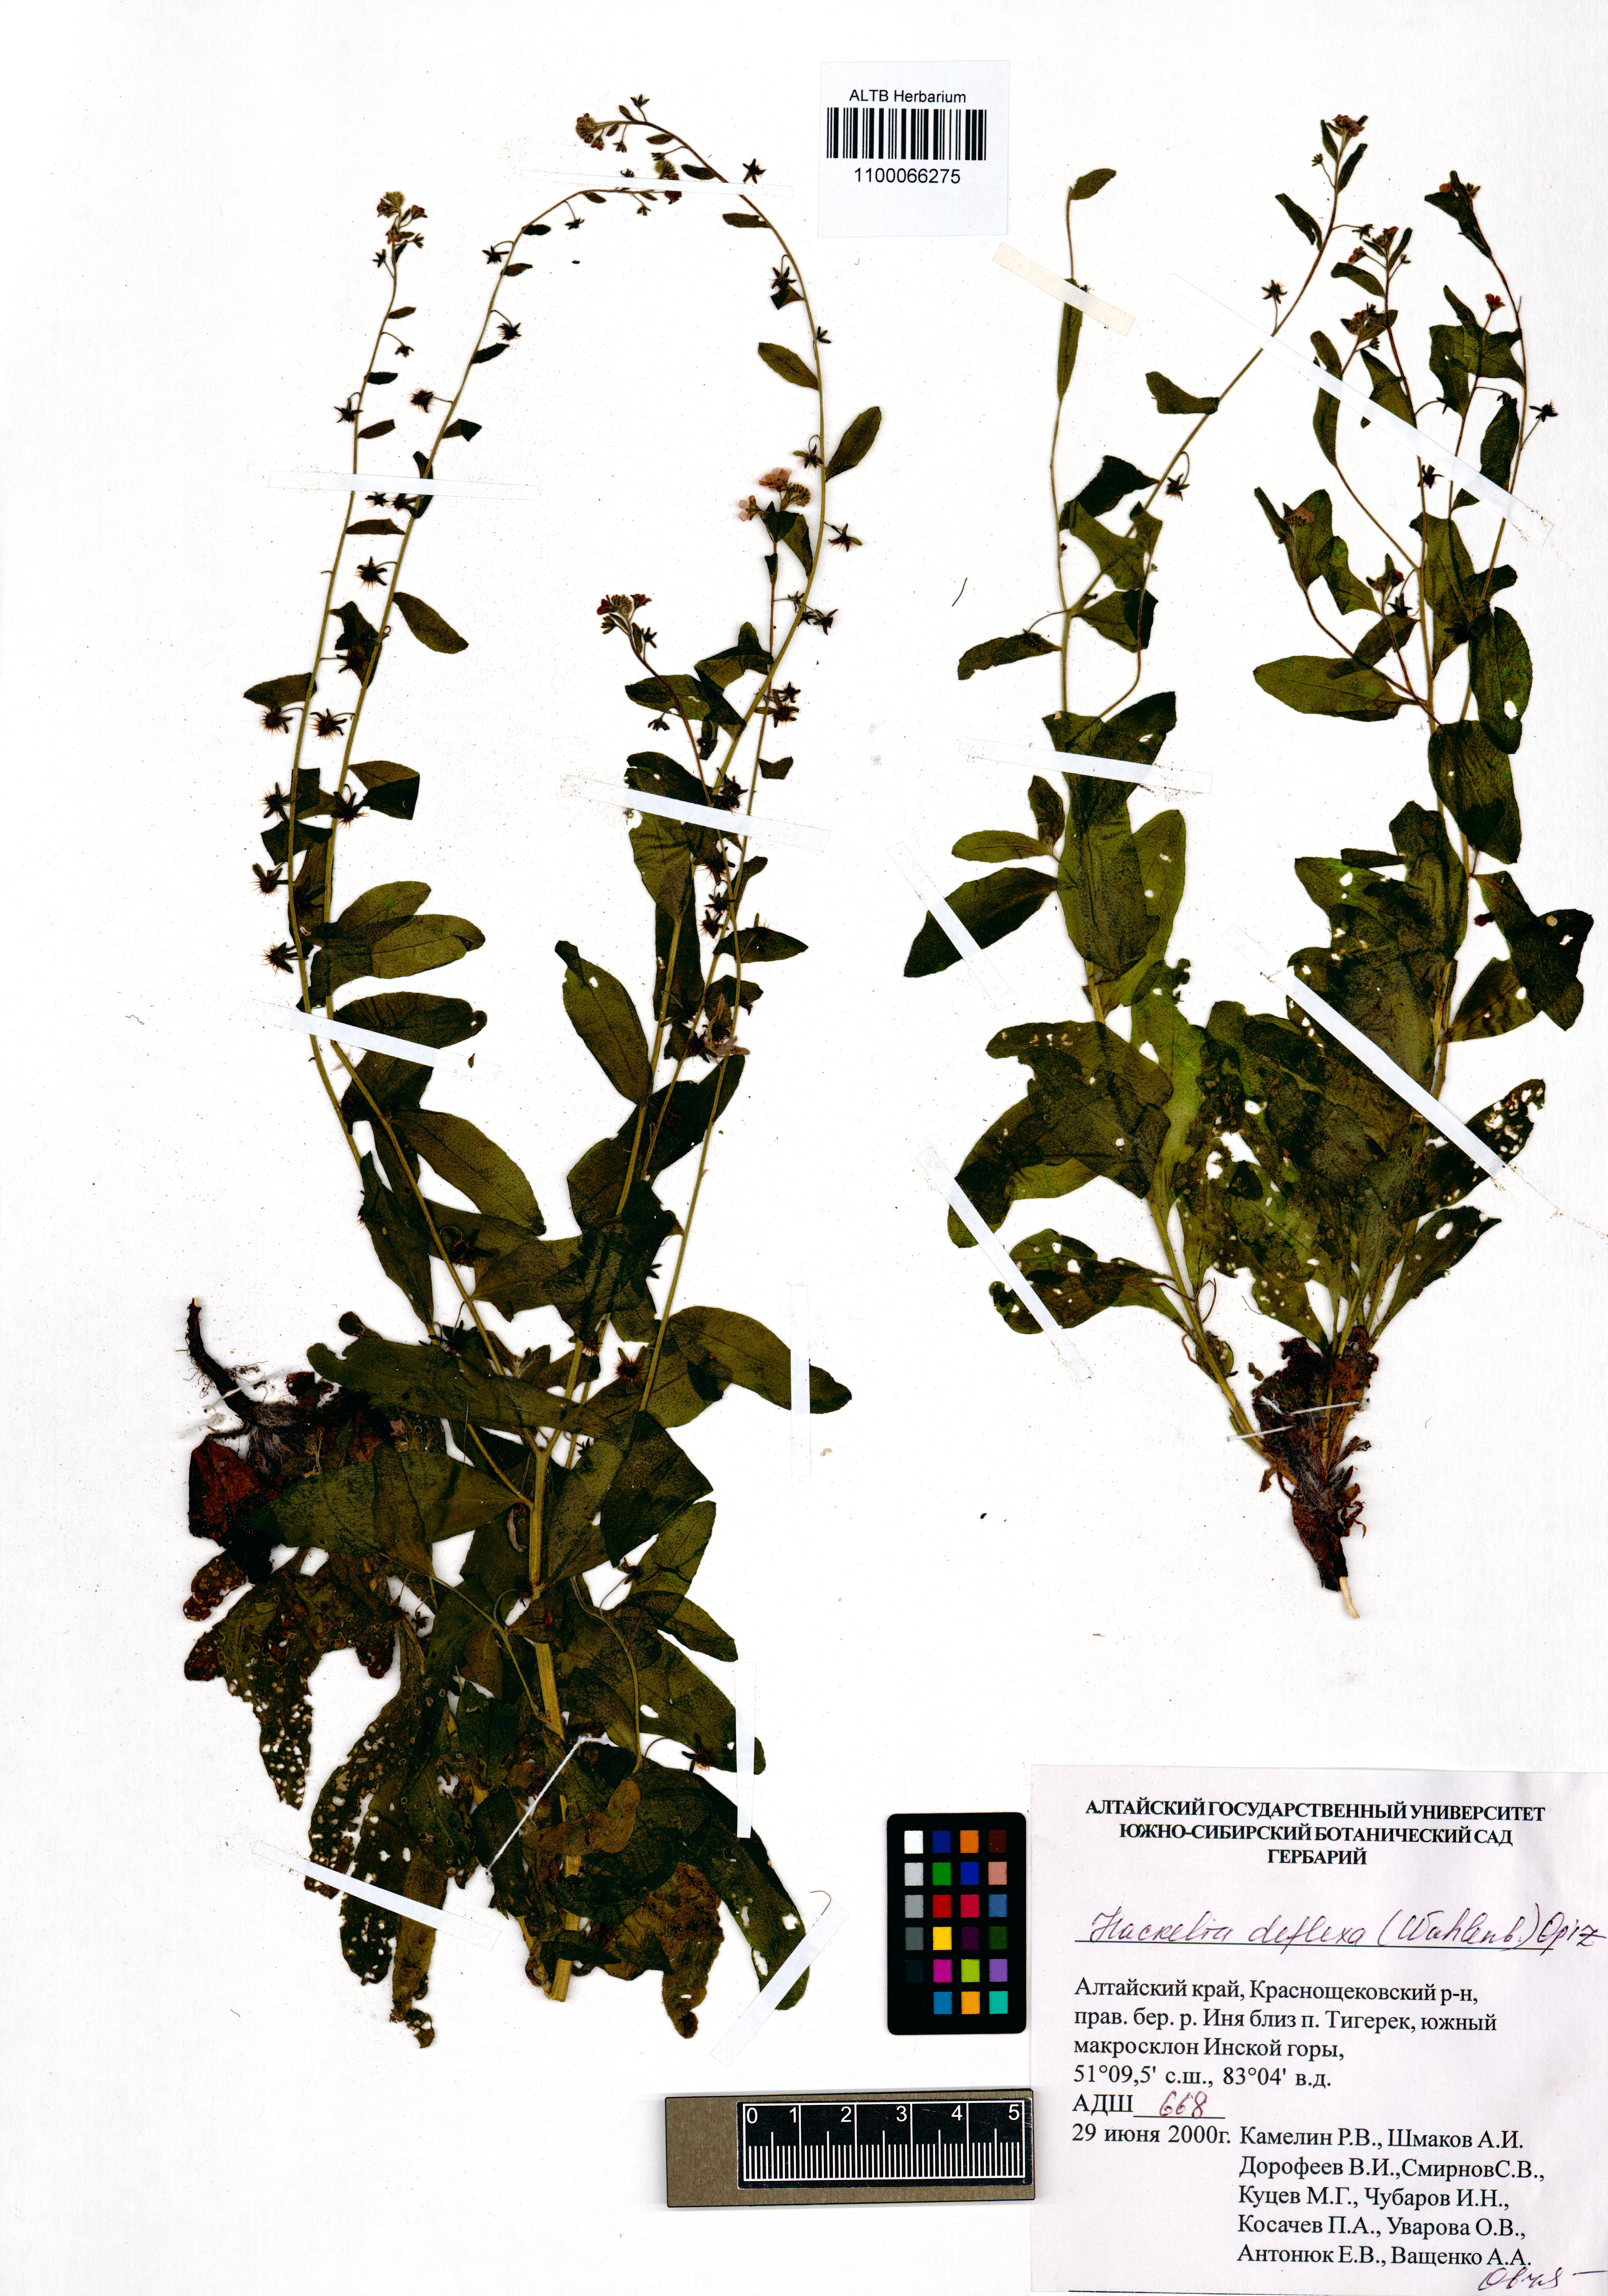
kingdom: Plantae
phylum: Tracheophyta
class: Magnoliopsida
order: Boraginales
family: Boraginaceae
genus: Hackelia
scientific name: Hackelia deflexa
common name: Nodding stickseed
